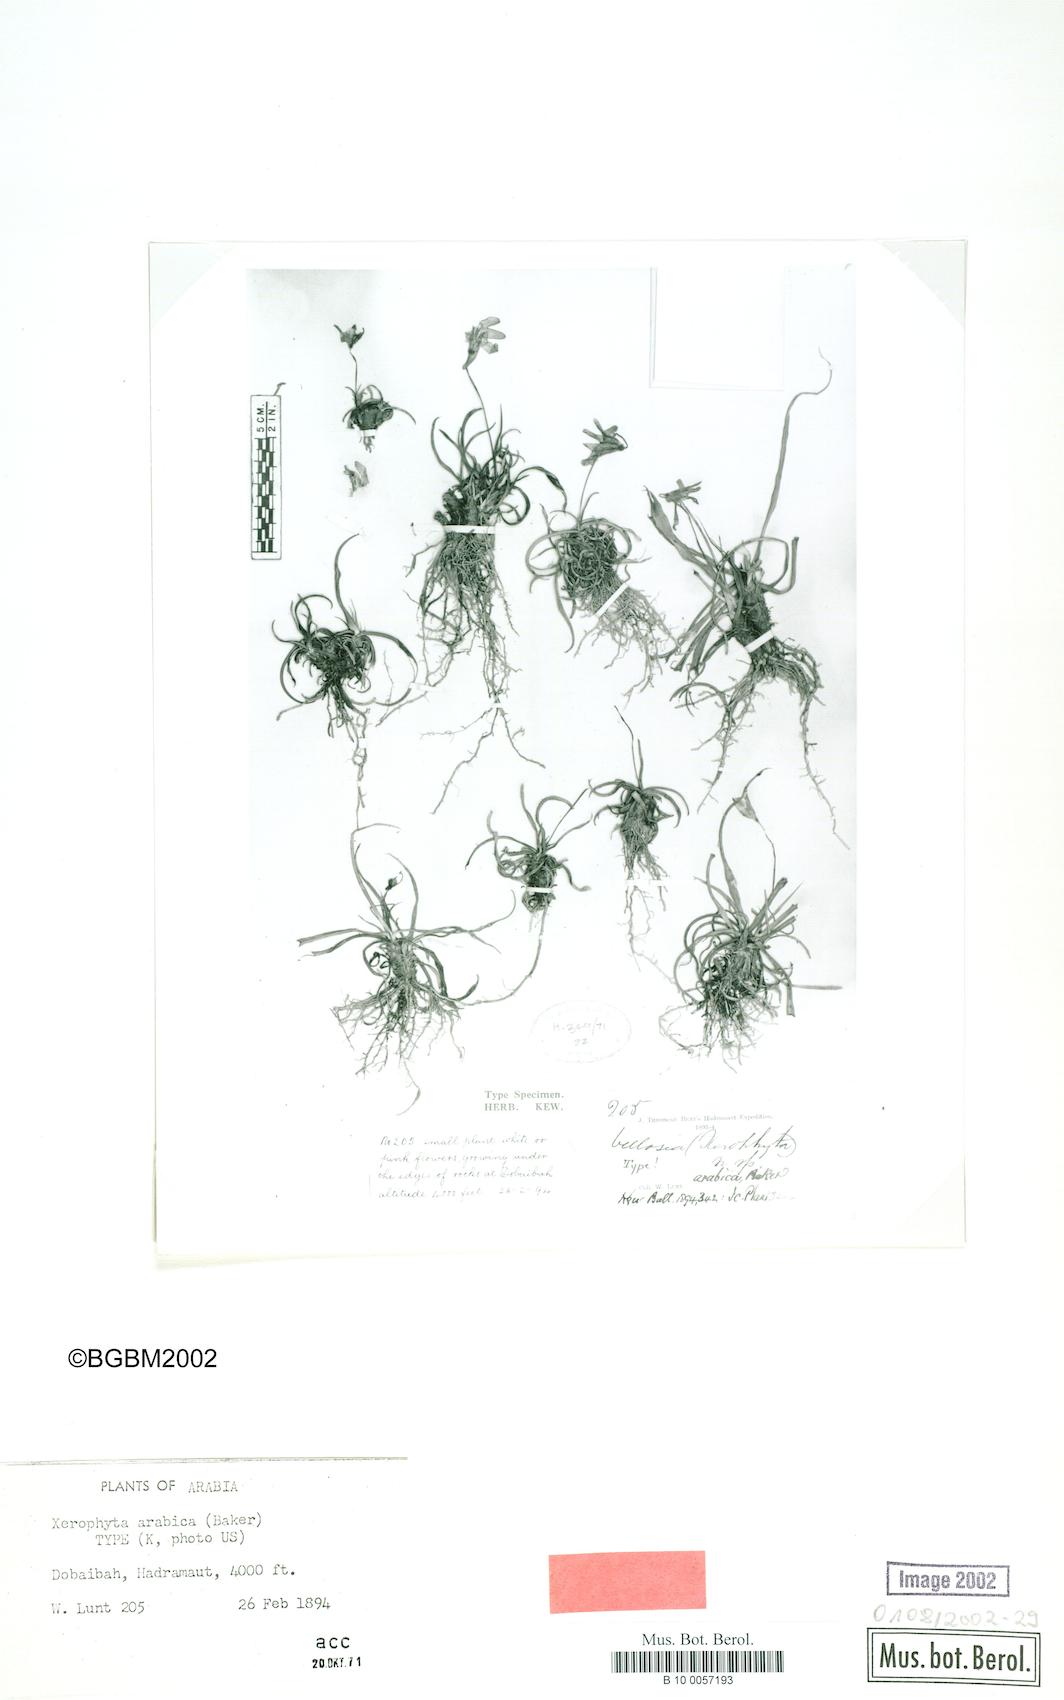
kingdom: Plantae
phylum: Tracheophyta
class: Liliopsida
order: Pandanales
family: Velloziaceae
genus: Xerophyta
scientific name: Xerophyta arabica
